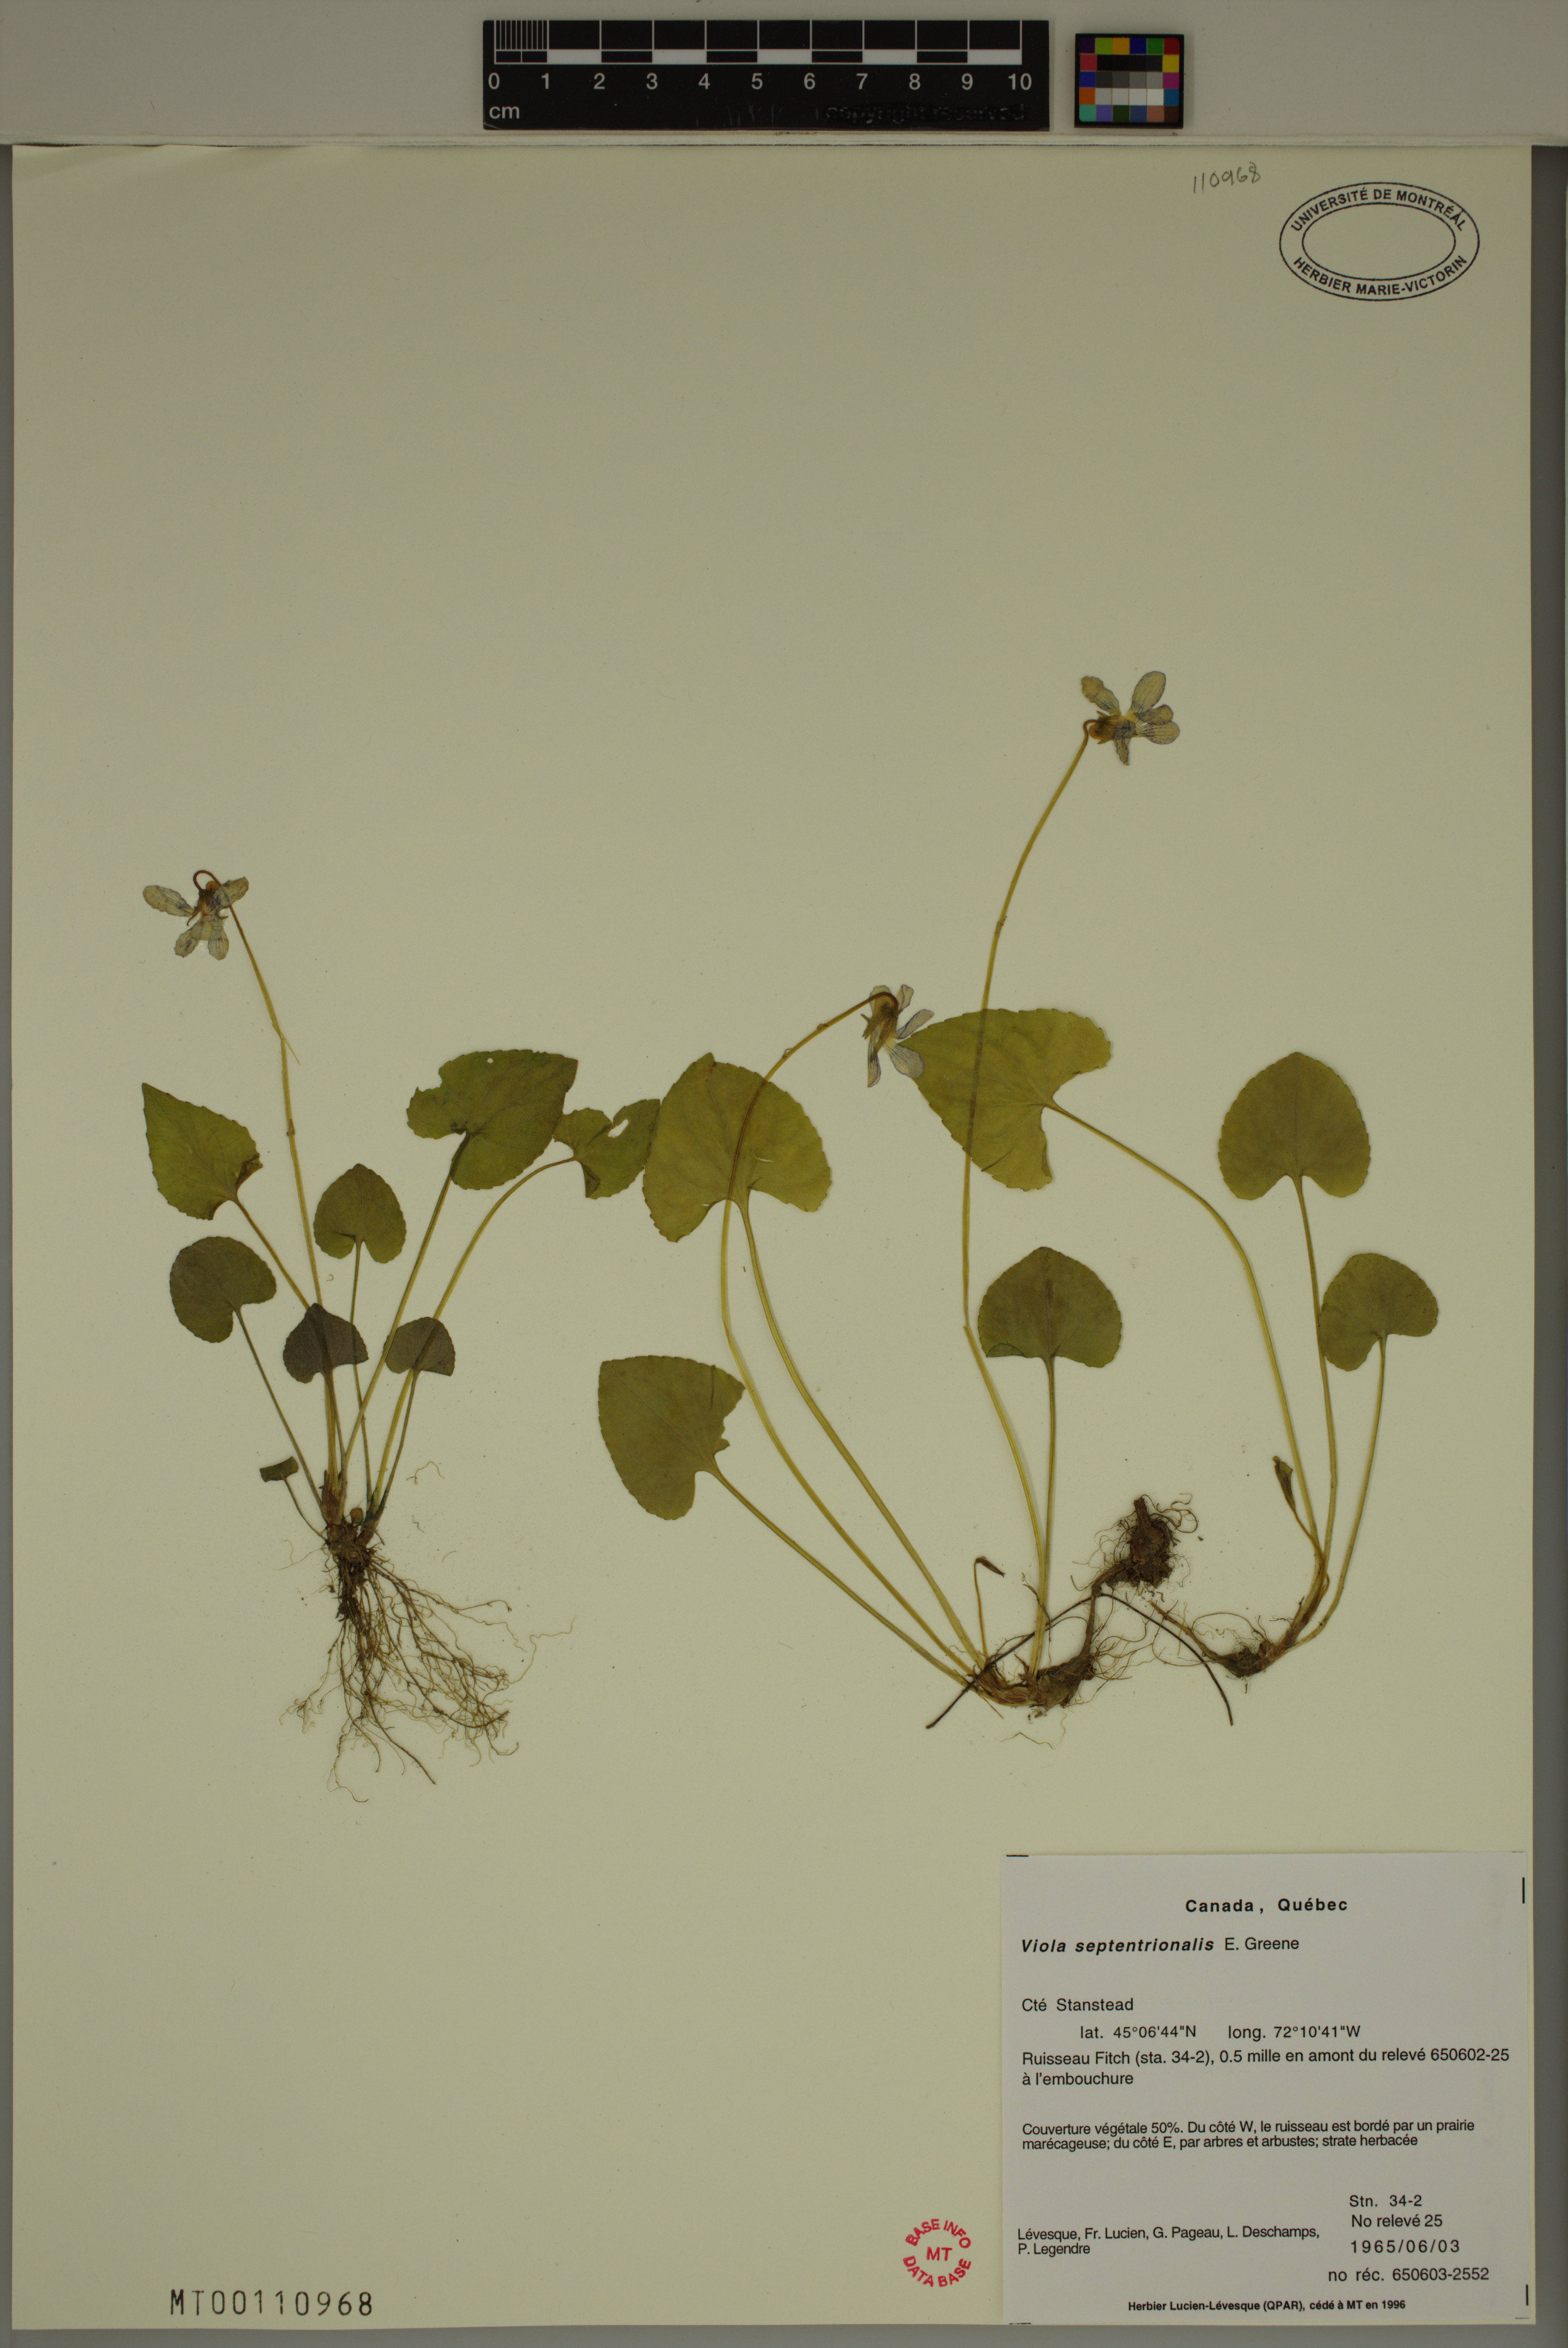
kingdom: Plantae
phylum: Tracheophyta
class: Magnoliopsida
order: Malpighiales
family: Violaceae
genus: Viola
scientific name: Viola sororia
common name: Dooryard violet
